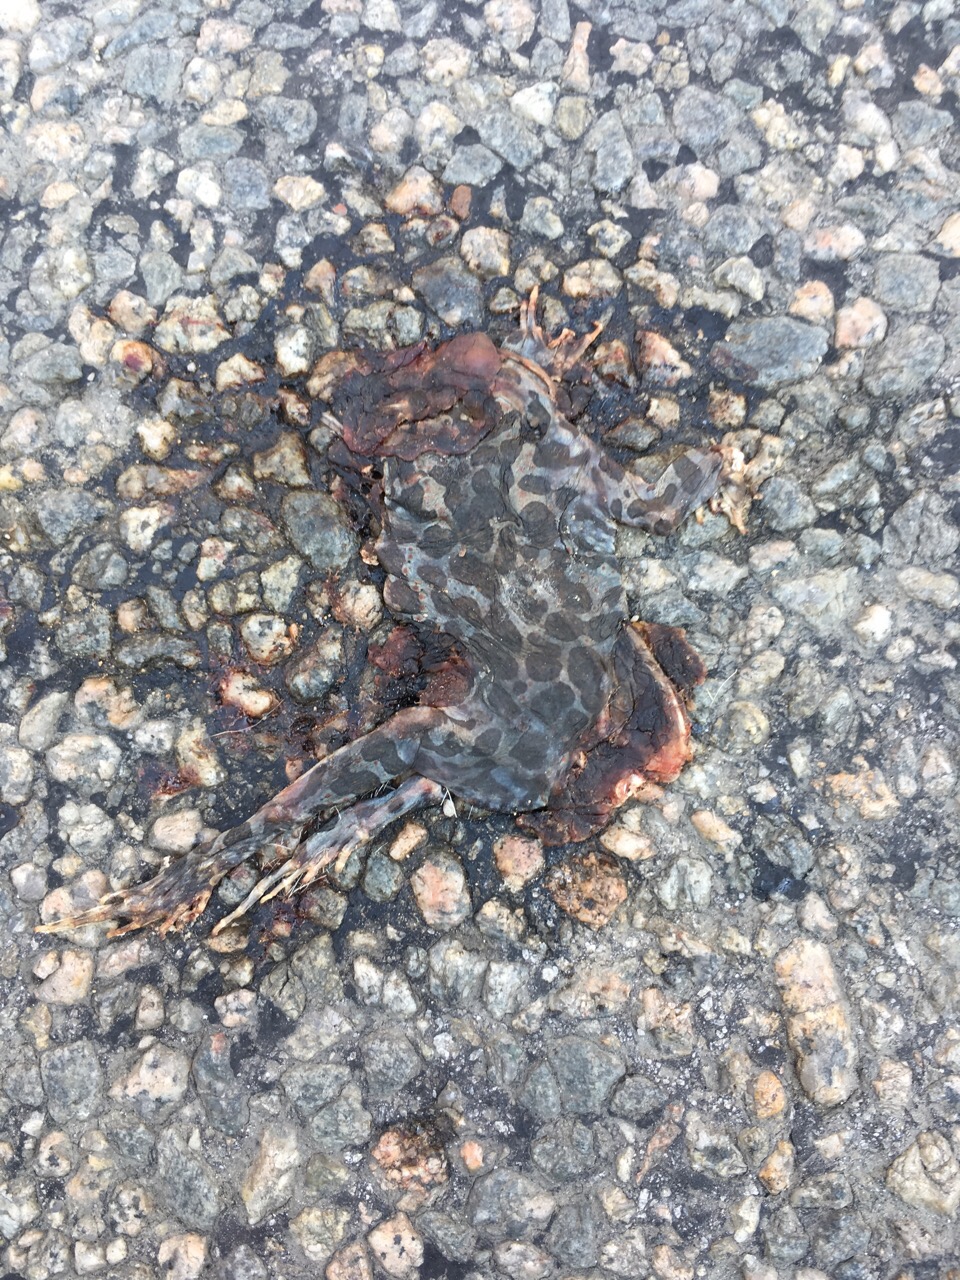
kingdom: Animalia
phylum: Chordata
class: Amphibia
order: Anura
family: Bufonidae
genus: Bufotes
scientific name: Bufotes viridis
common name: European green toad
